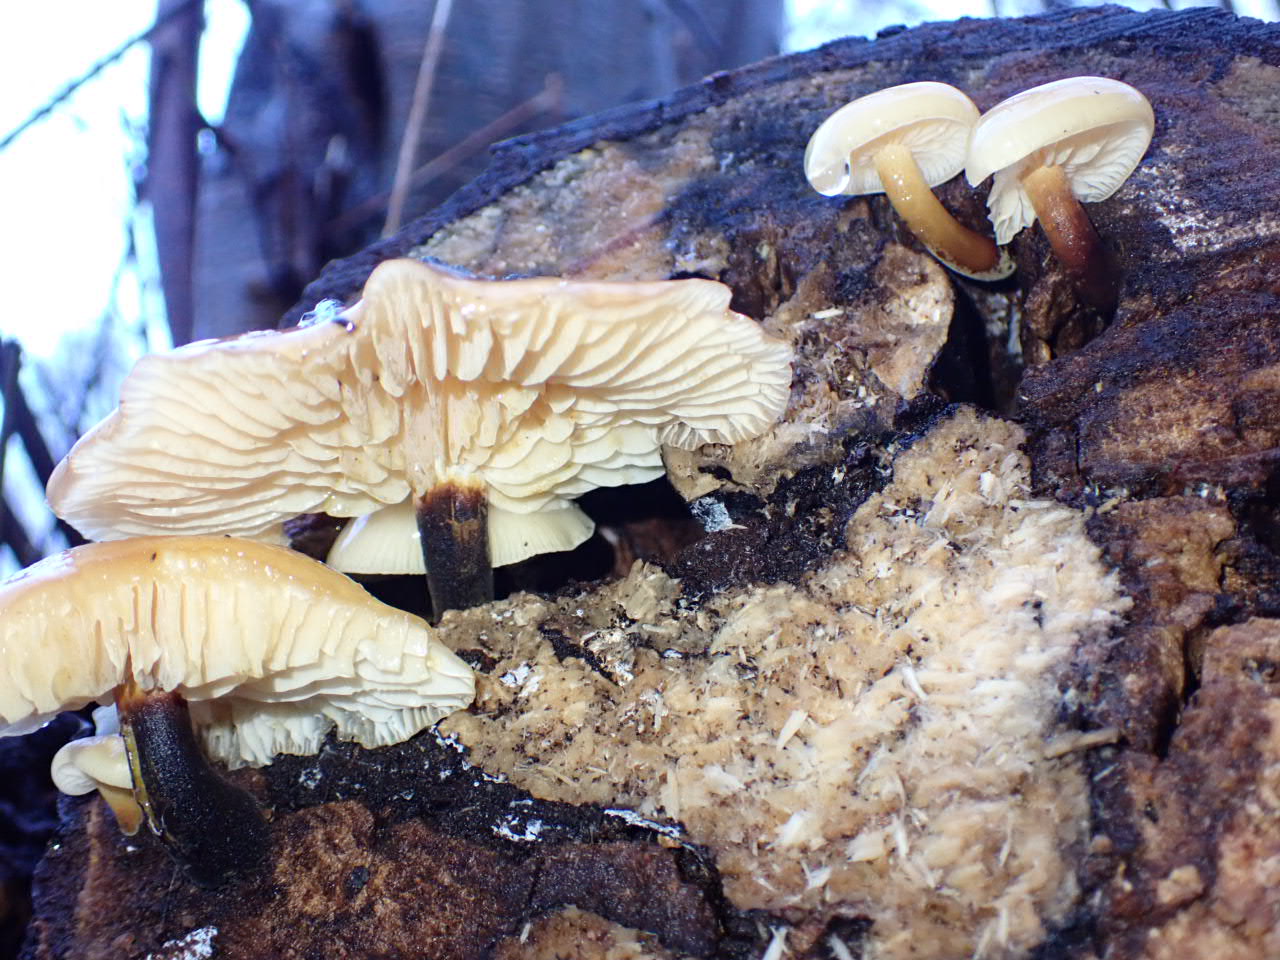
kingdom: Fungi
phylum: Basidiomycota
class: Agaricomycetes
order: Agaricales
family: Physalacriaceae
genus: Flammulina
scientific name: Flammulina
